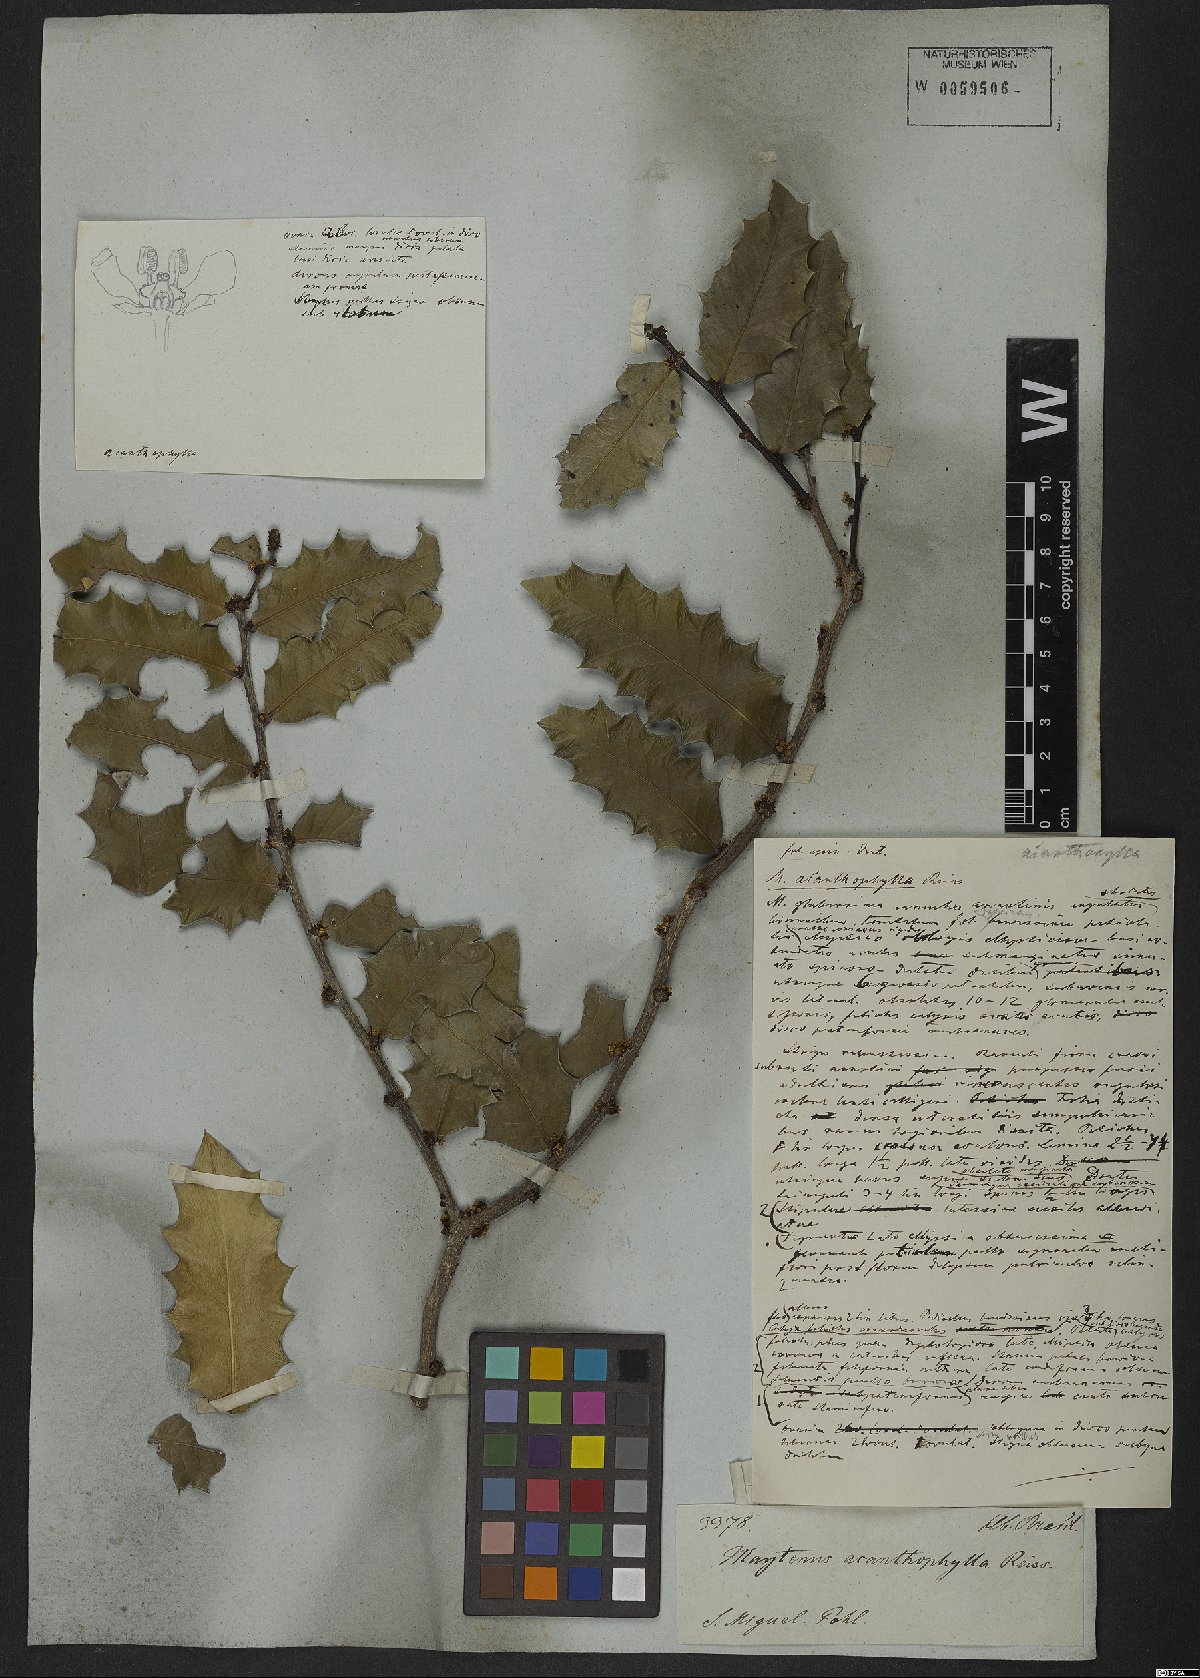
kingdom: Plantae
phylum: Tracheophyta
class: Magnoliopsida
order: Celastrales
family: Celastraceae
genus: Monteverdia
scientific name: Monteverdia acanthophylla
